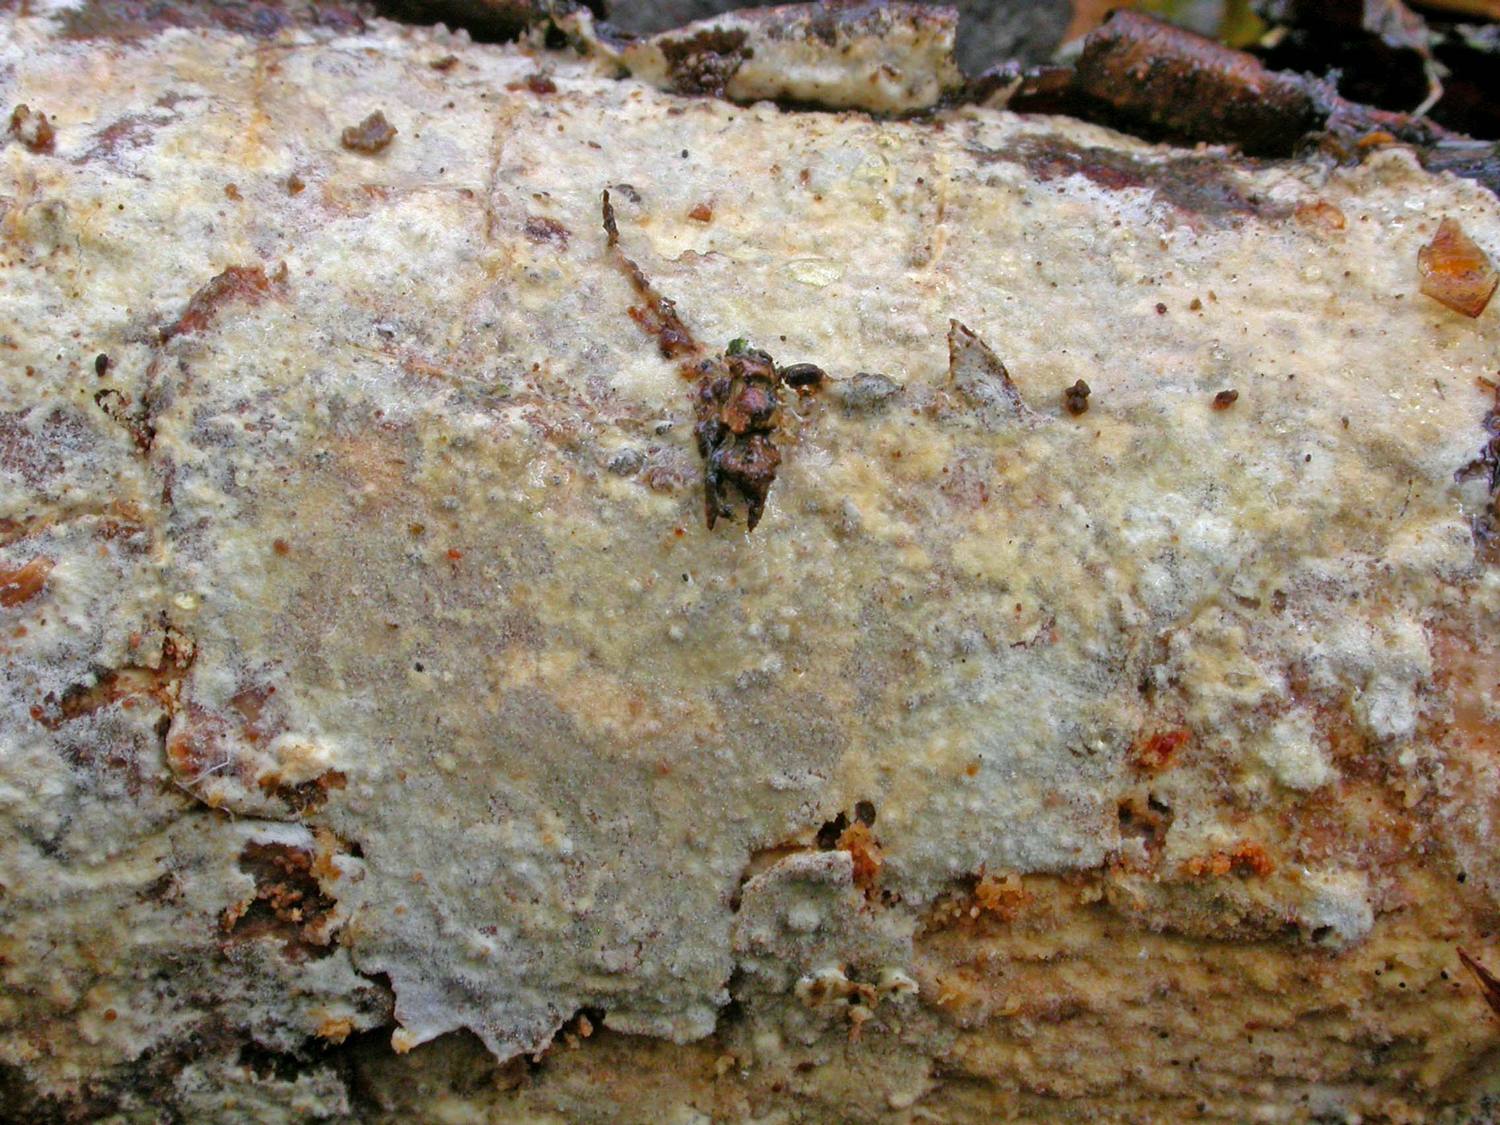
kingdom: Fungi
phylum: Basidiomycota
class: Agaricomycetes
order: Polyporales
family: Phanerochaetaceae
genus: Phanerochaete
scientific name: Phanerochaete velutina
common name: dunet randtråd
